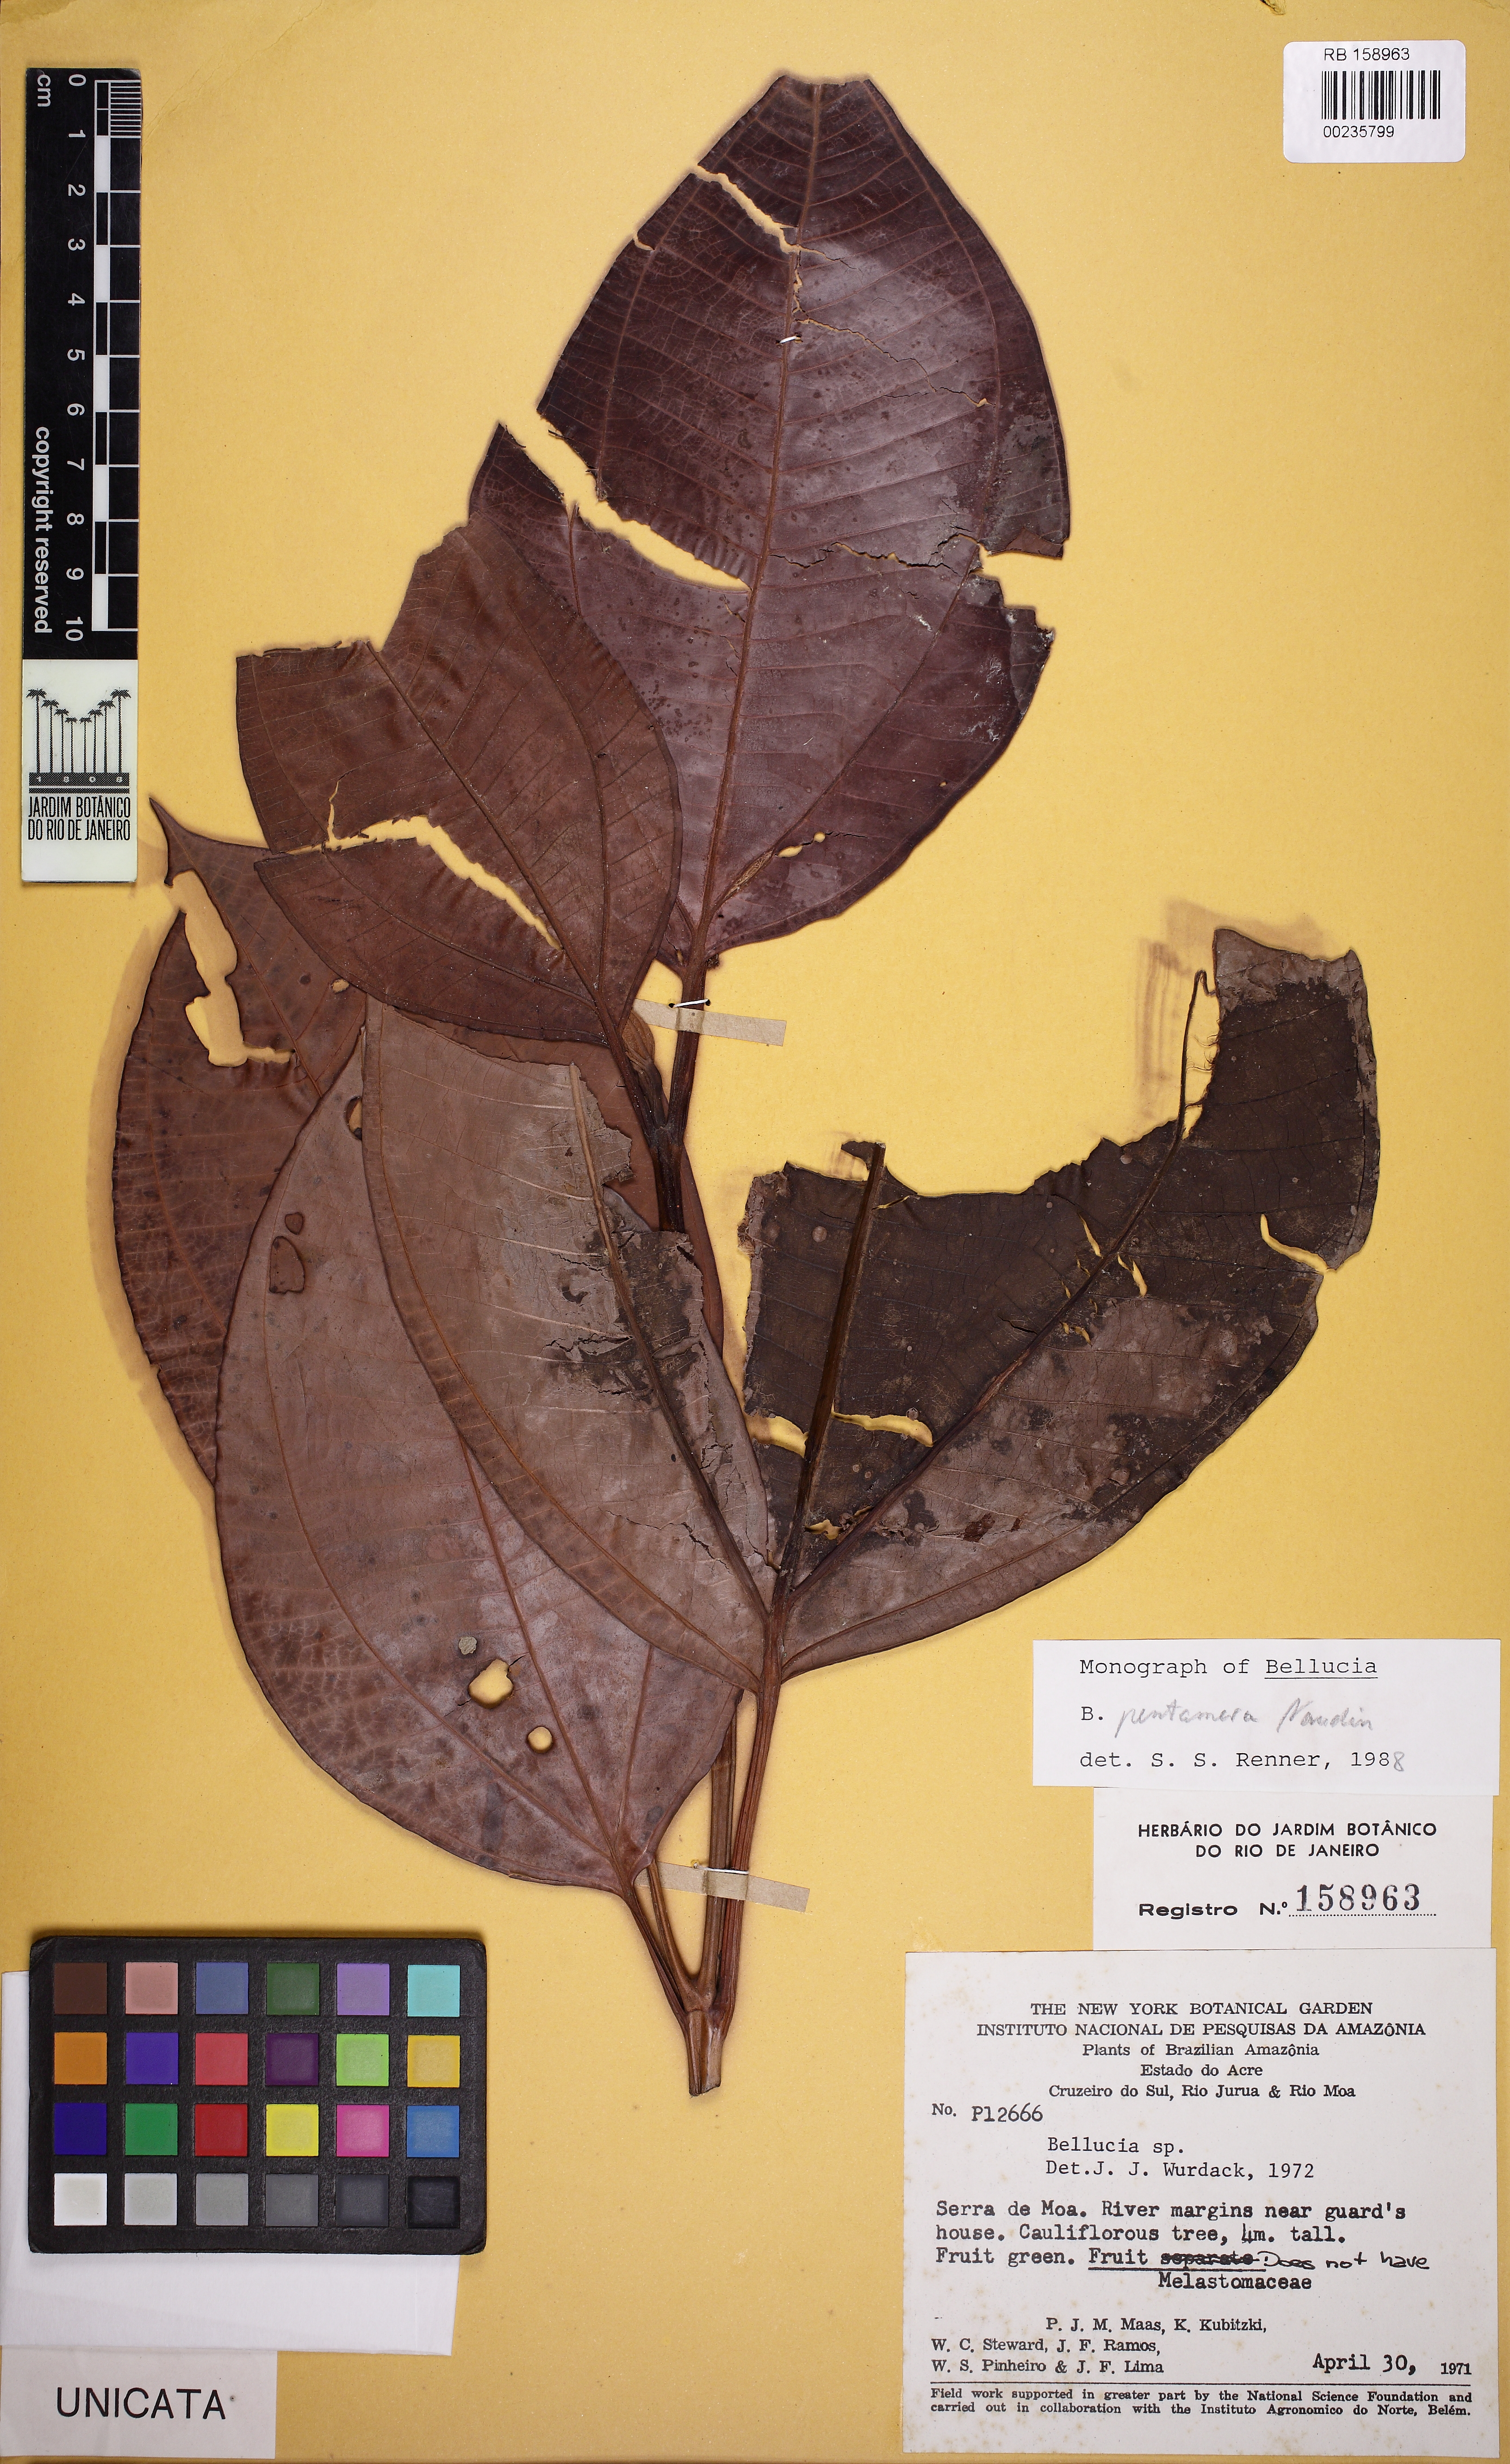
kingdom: Plantae
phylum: Tracheophyta
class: Magnoliopsida
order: Myrtales
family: Melastomataceae
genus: Bellucia
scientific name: Bellucia pentamera
